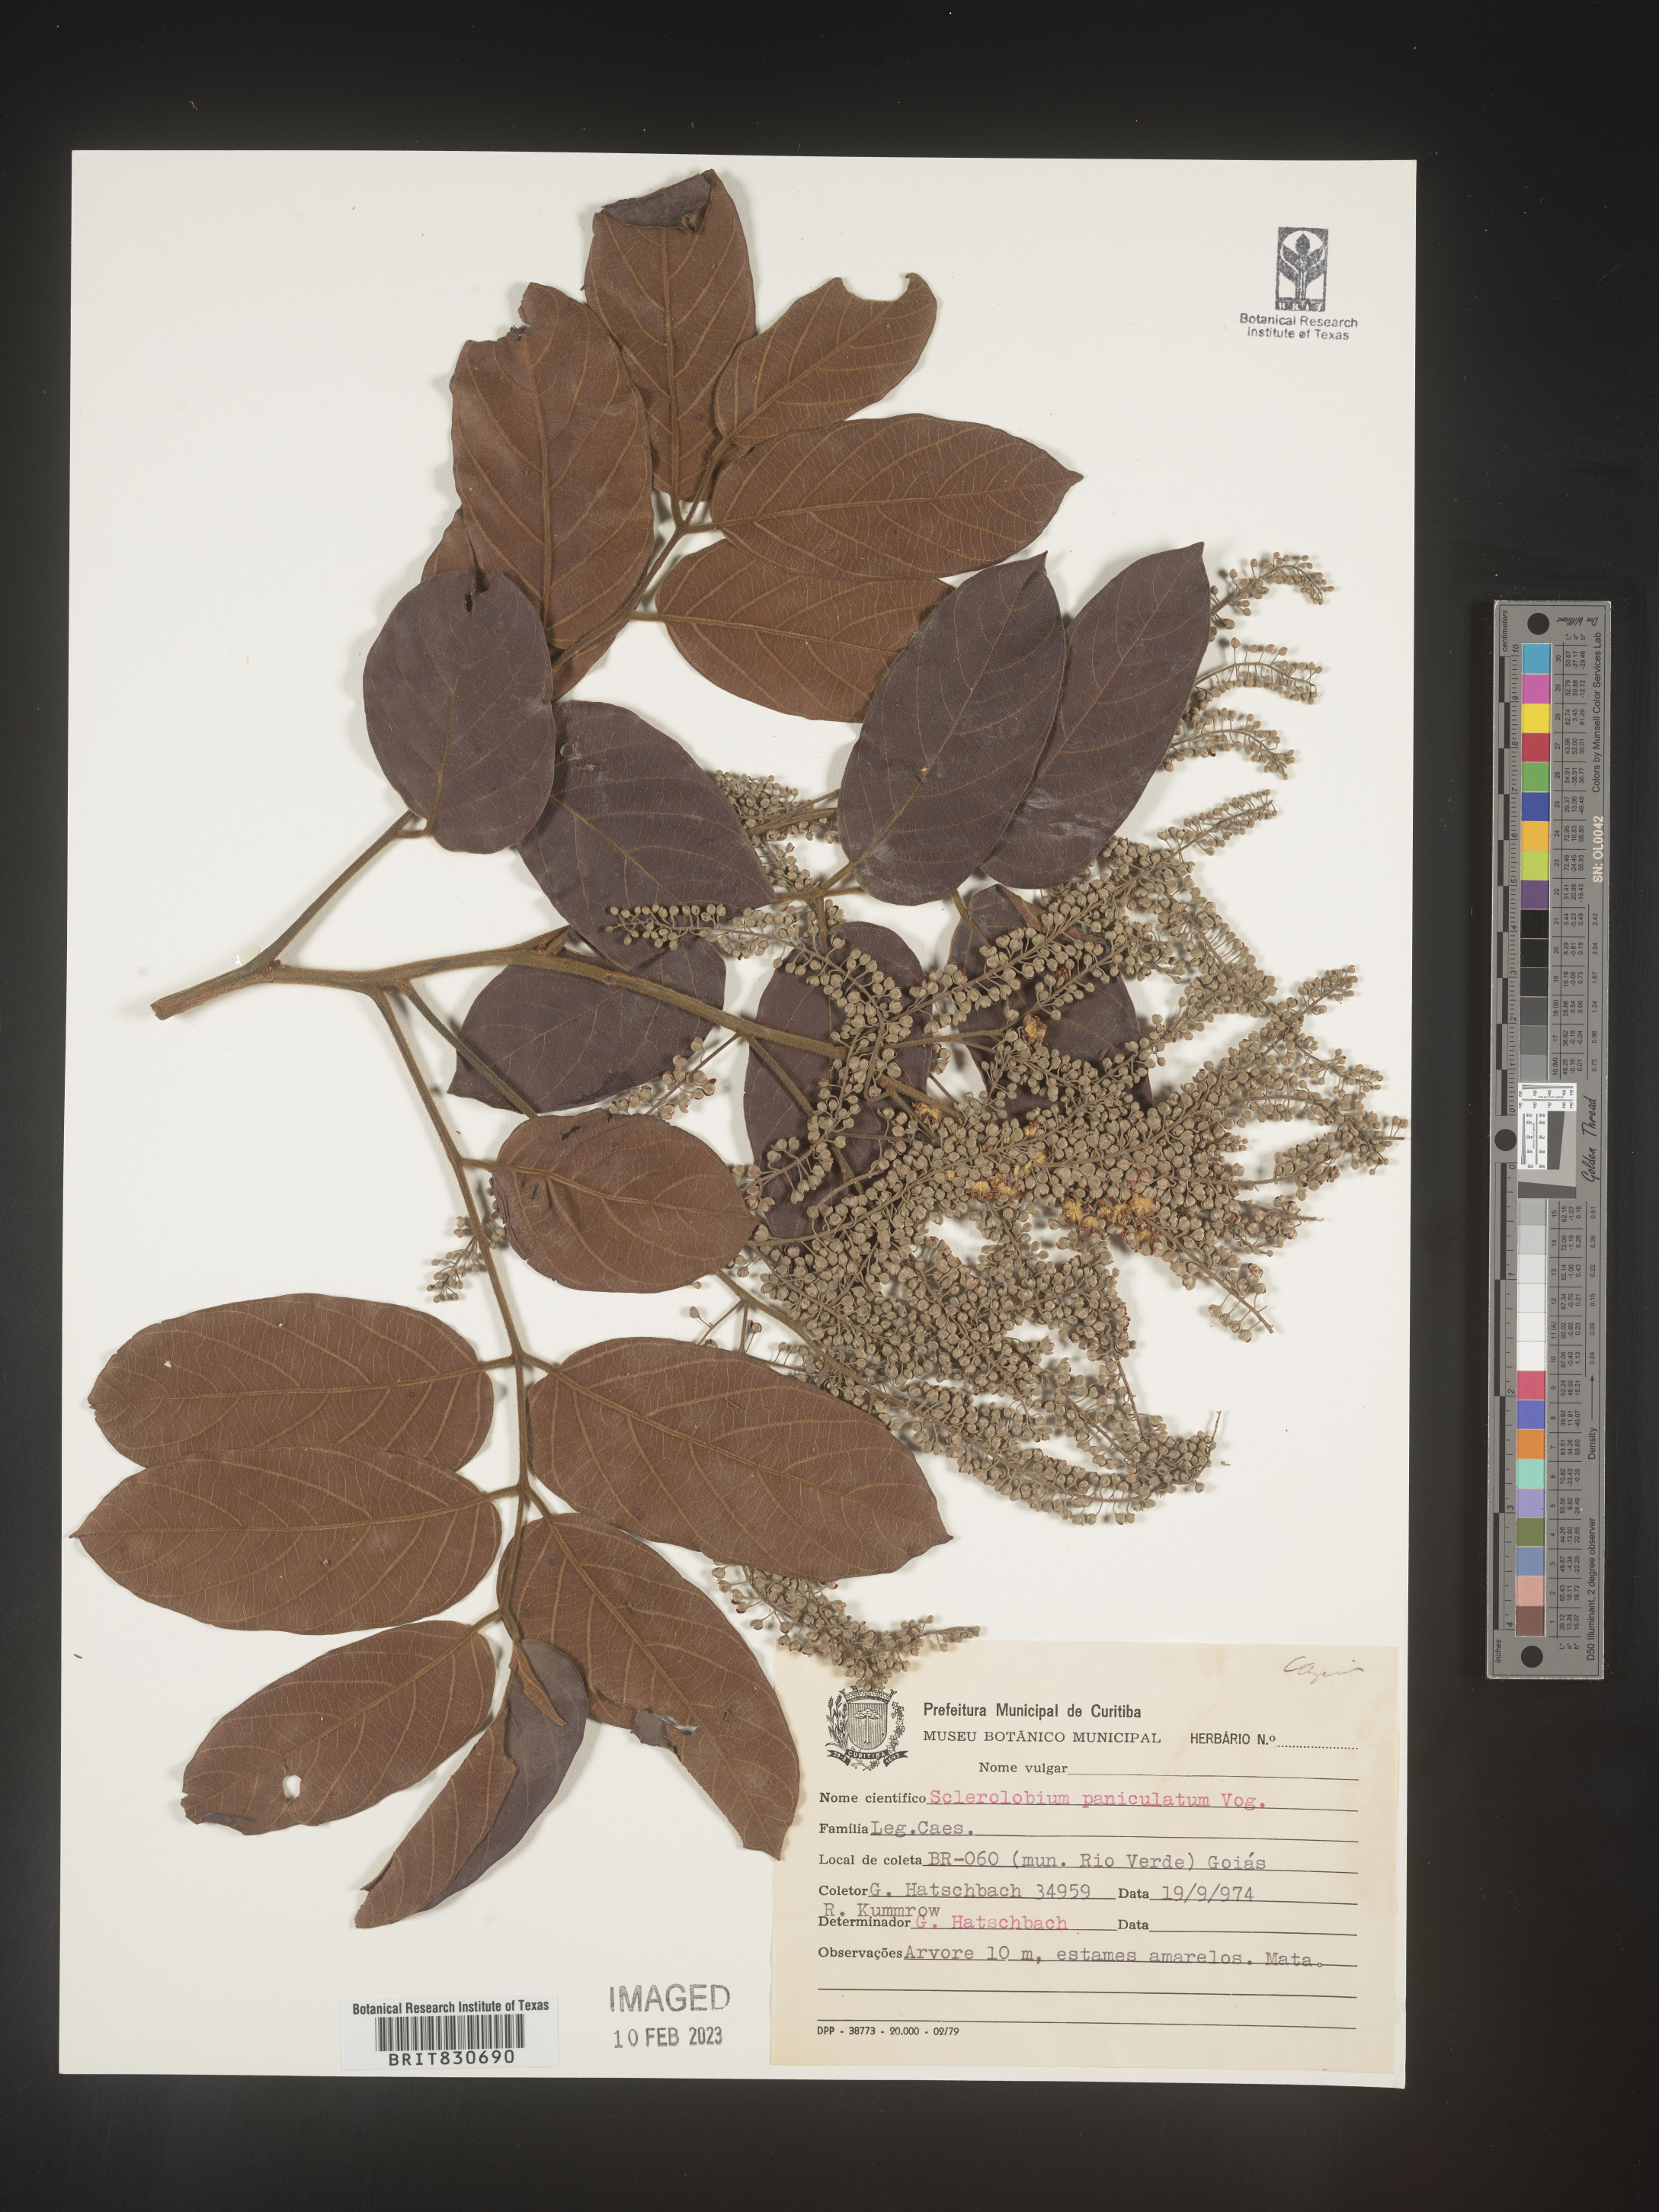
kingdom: Plantae
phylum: Tracheophyta
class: Magnoliopsida
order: Fabales
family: Fabaceae
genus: Tachigali
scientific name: Tachigali
